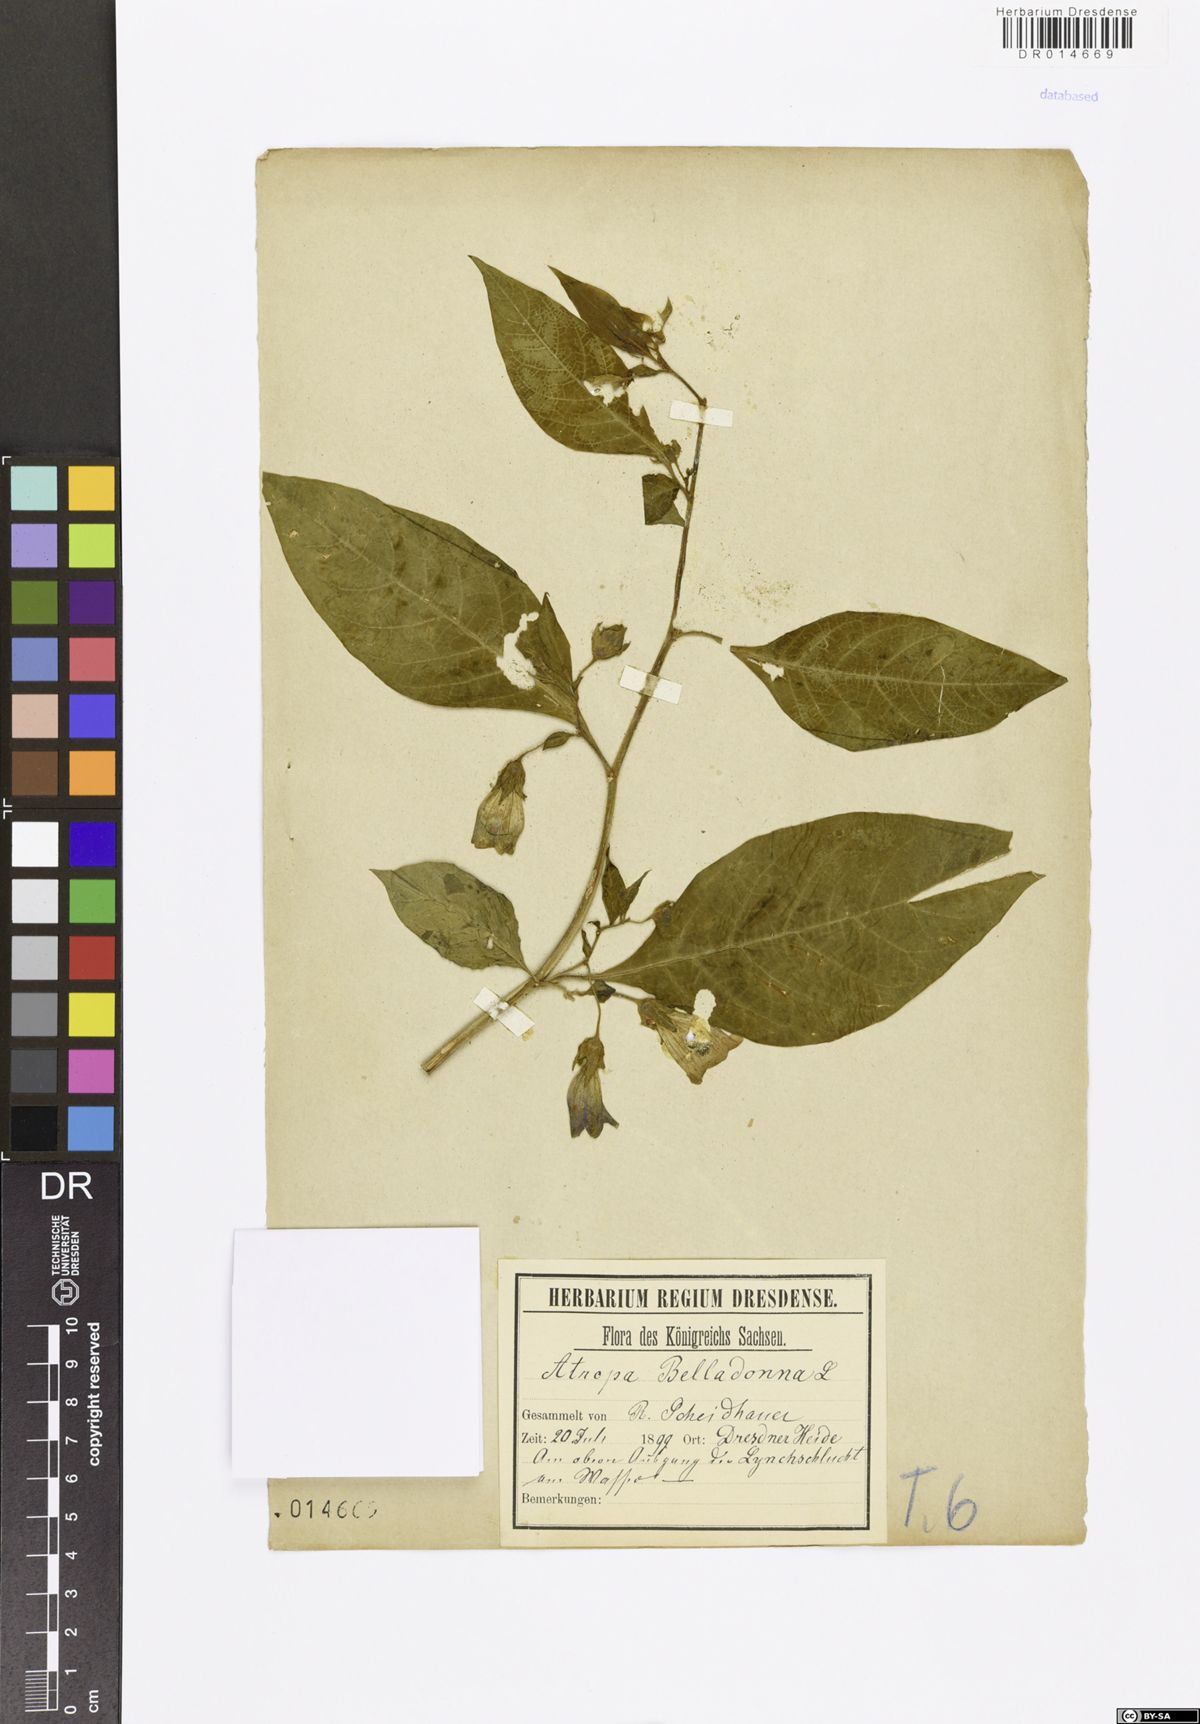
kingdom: Plantae
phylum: Tracheophyta
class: Magnoliopsida
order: Solanales
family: Solanaceae
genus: Atropa
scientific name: Atropa belladonna
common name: Deadly nightshade
